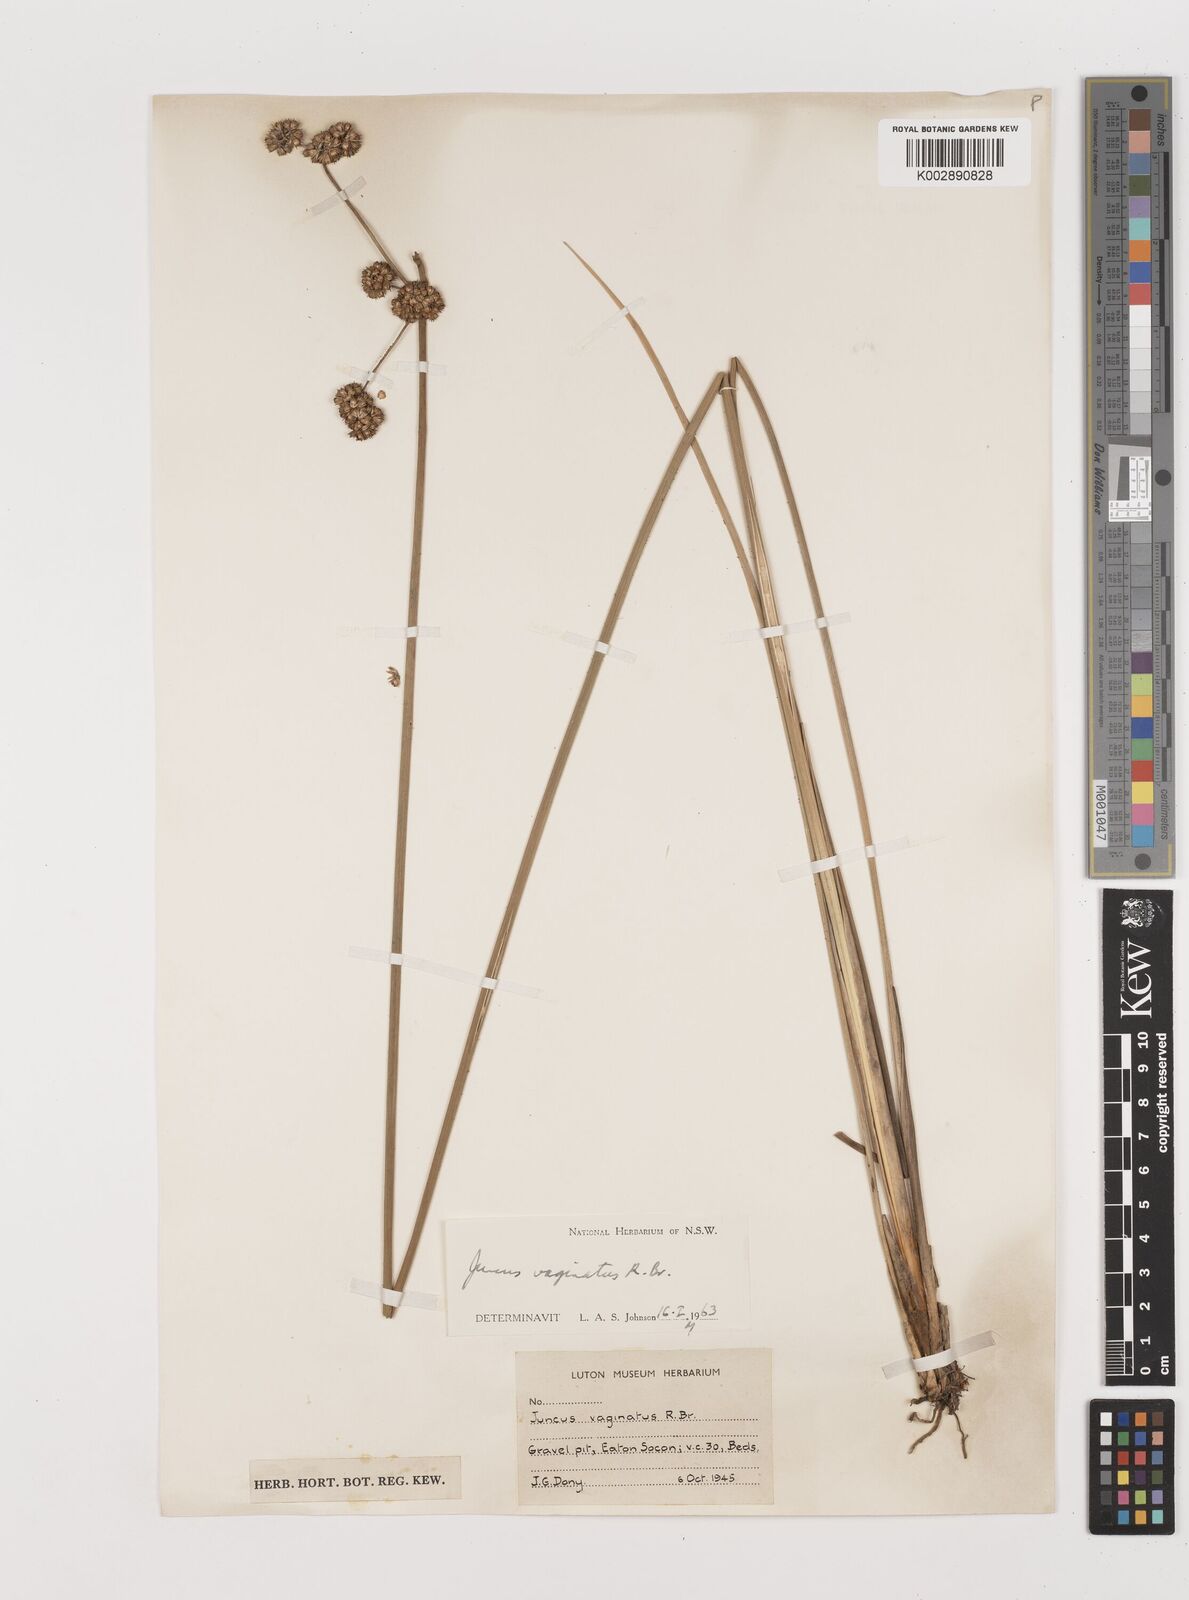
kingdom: Plantae
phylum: Tracheophyta
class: Liliopsida
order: Poales
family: Juncaceae
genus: Juncus
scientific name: Juncus vaginatus
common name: Clustered rush
